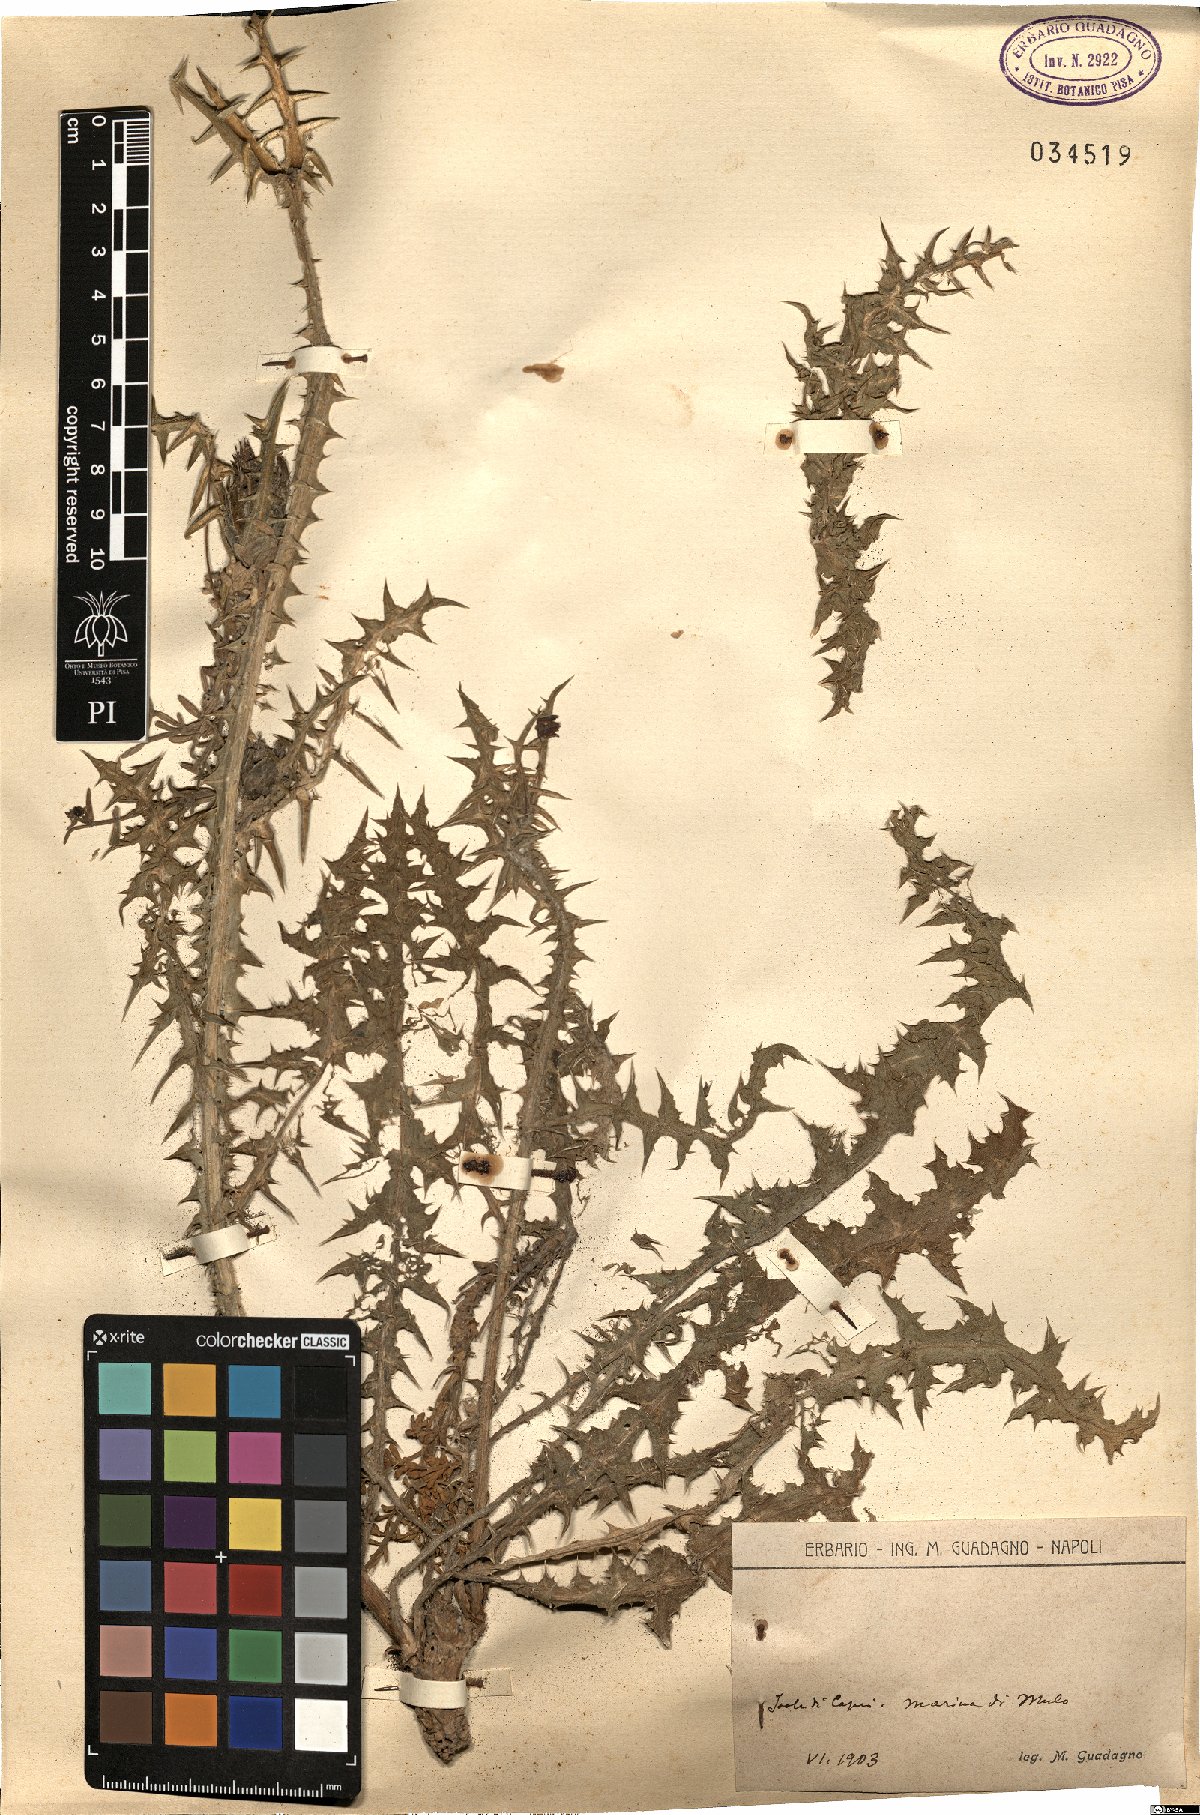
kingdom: Plantae
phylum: Tracheophyta
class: Magnoliopsida
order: Asterales
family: Asteraceae
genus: Scolymus
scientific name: Scolymus
